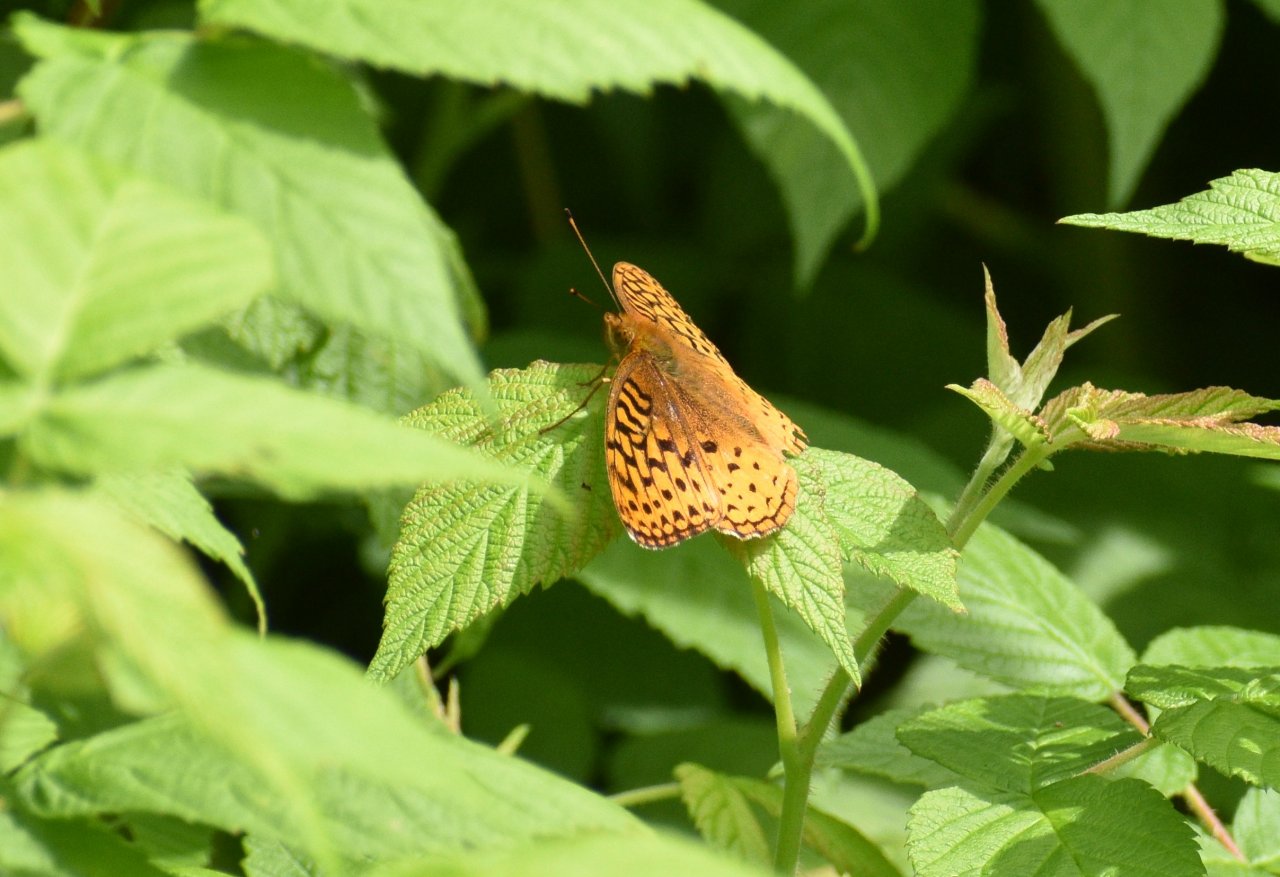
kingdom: Animalia
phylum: Arthropoda
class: Insecta
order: Lepidoptera
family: Nymphalidae
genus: Speyeria
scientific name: Speyeria cybele
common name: Great Spangled Fritillary
